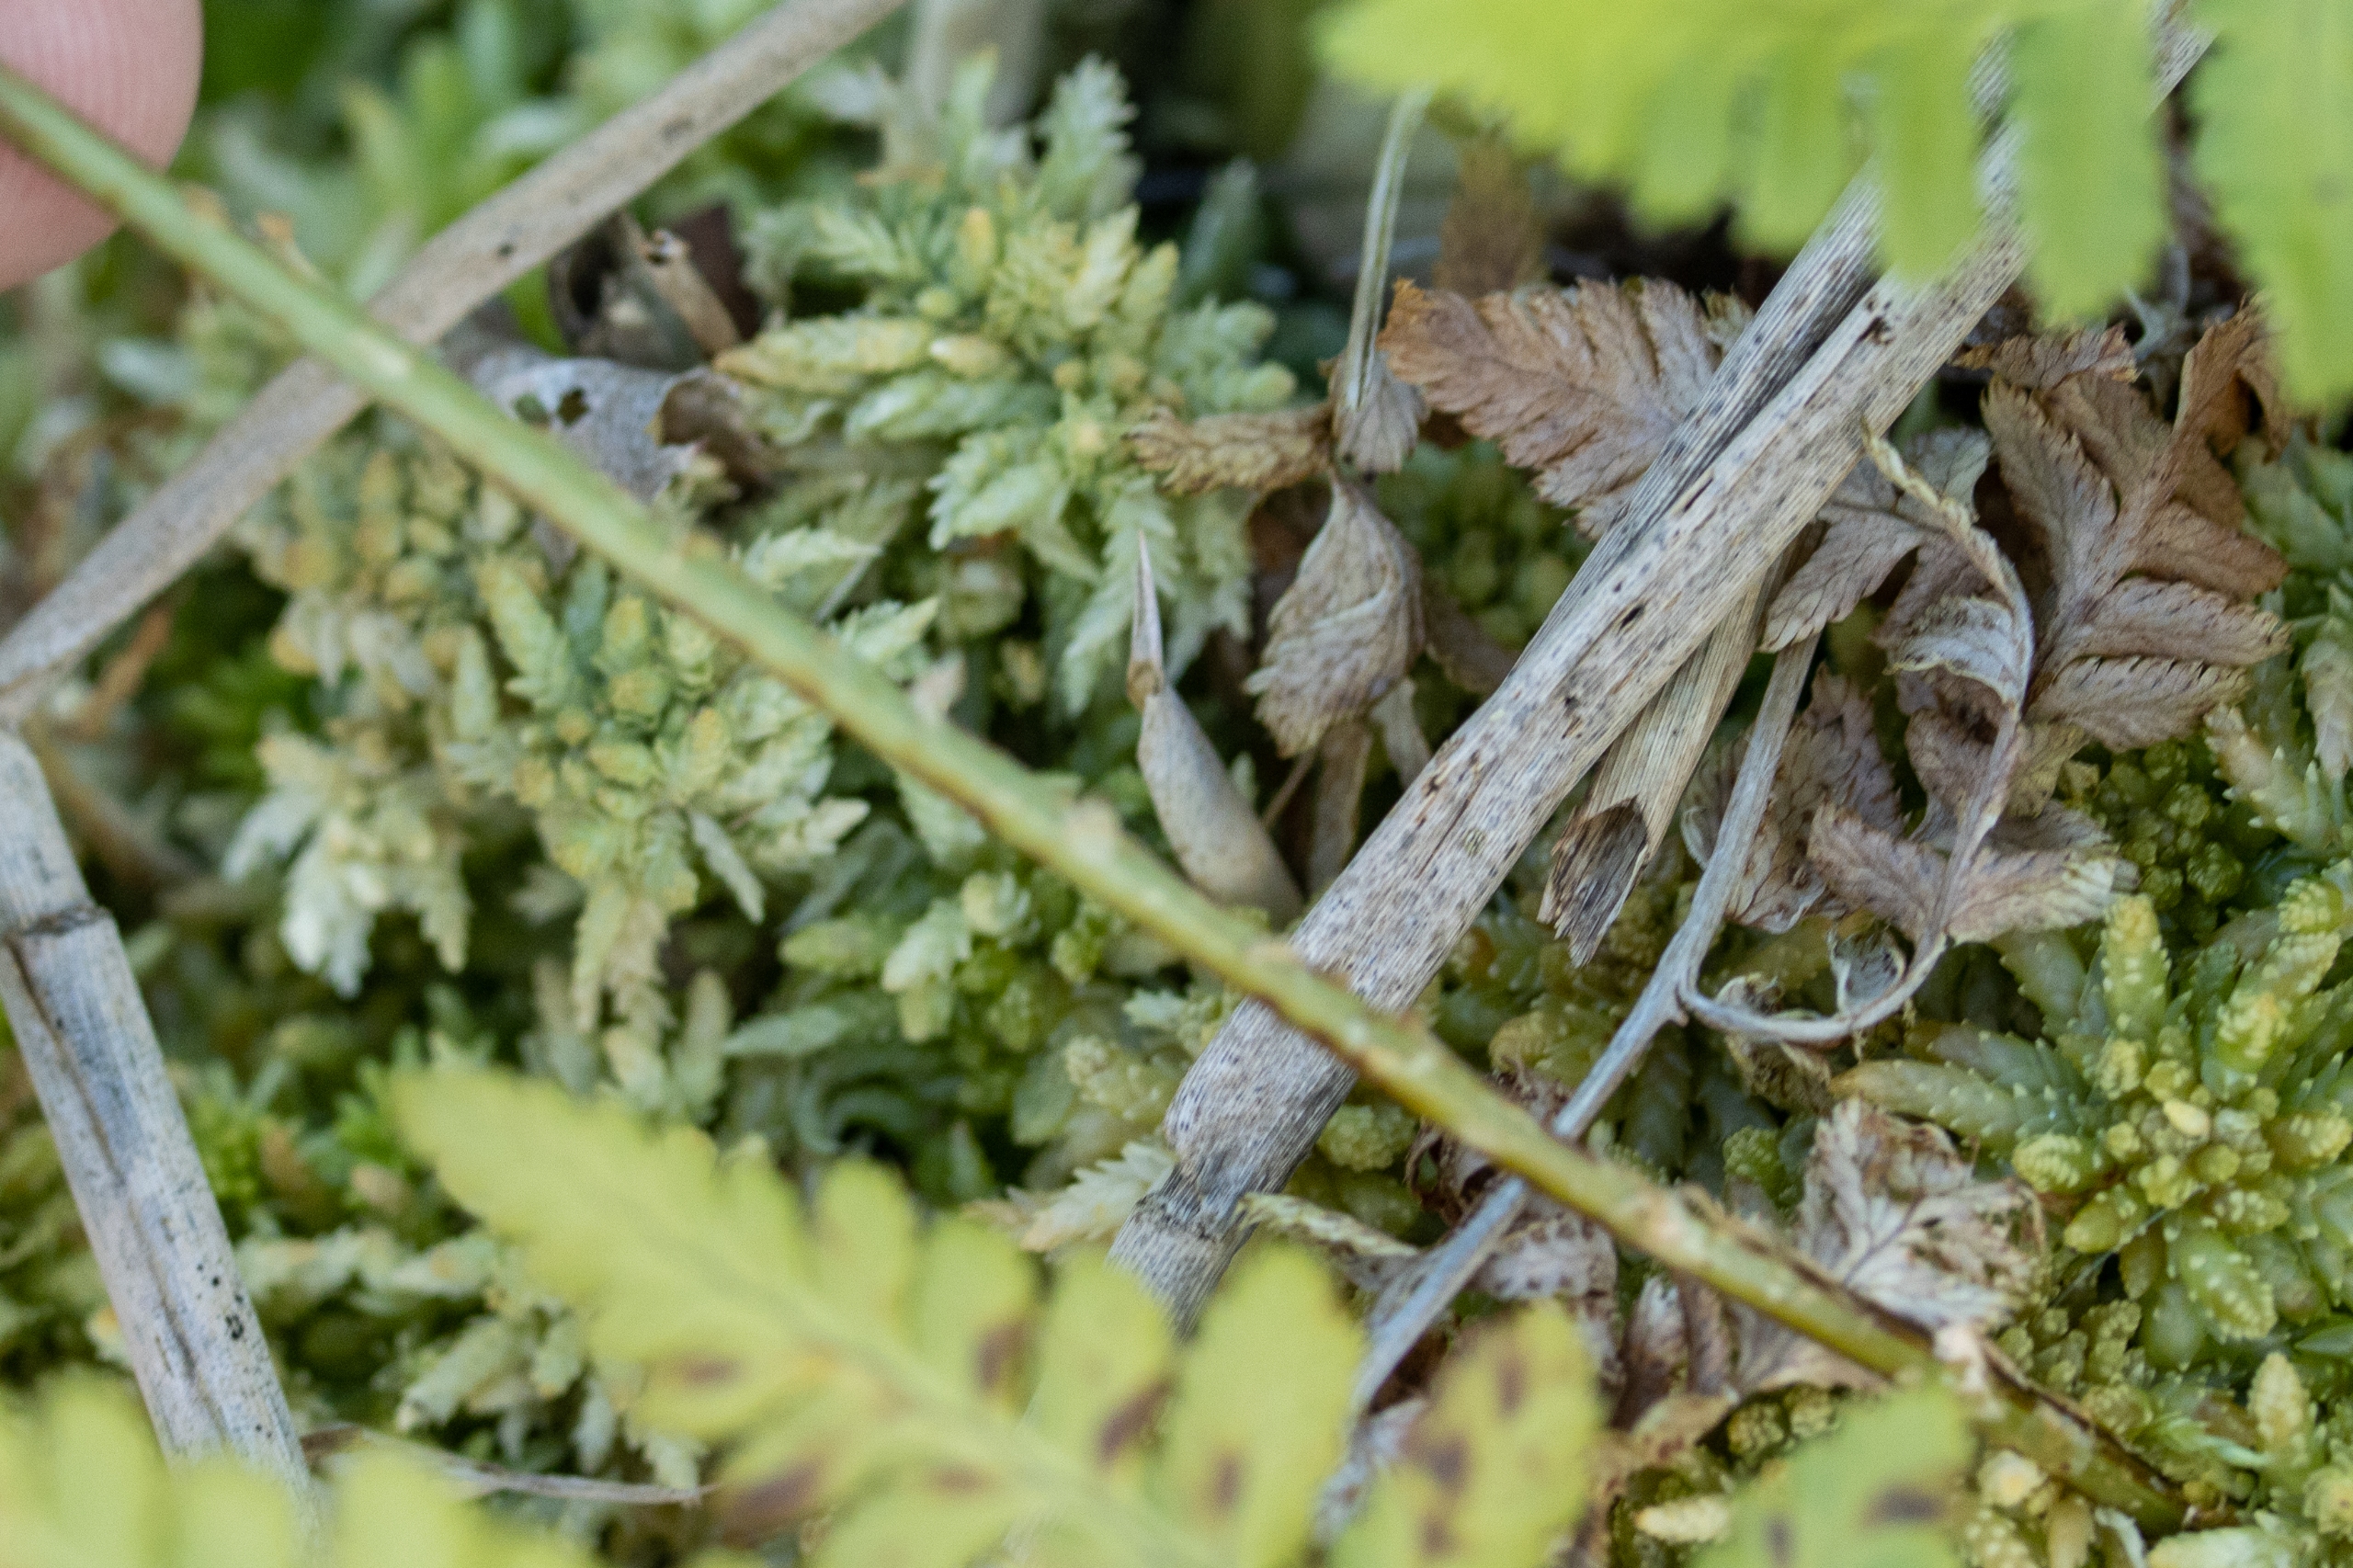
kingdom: Plantae
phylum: Tracheophyta
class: Polypodiopsida
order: Polypodiales
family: Dryopteridaceae
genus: Dryopteris
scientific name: Dryopteris carthusiana
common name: Smalbladet mangeløv
